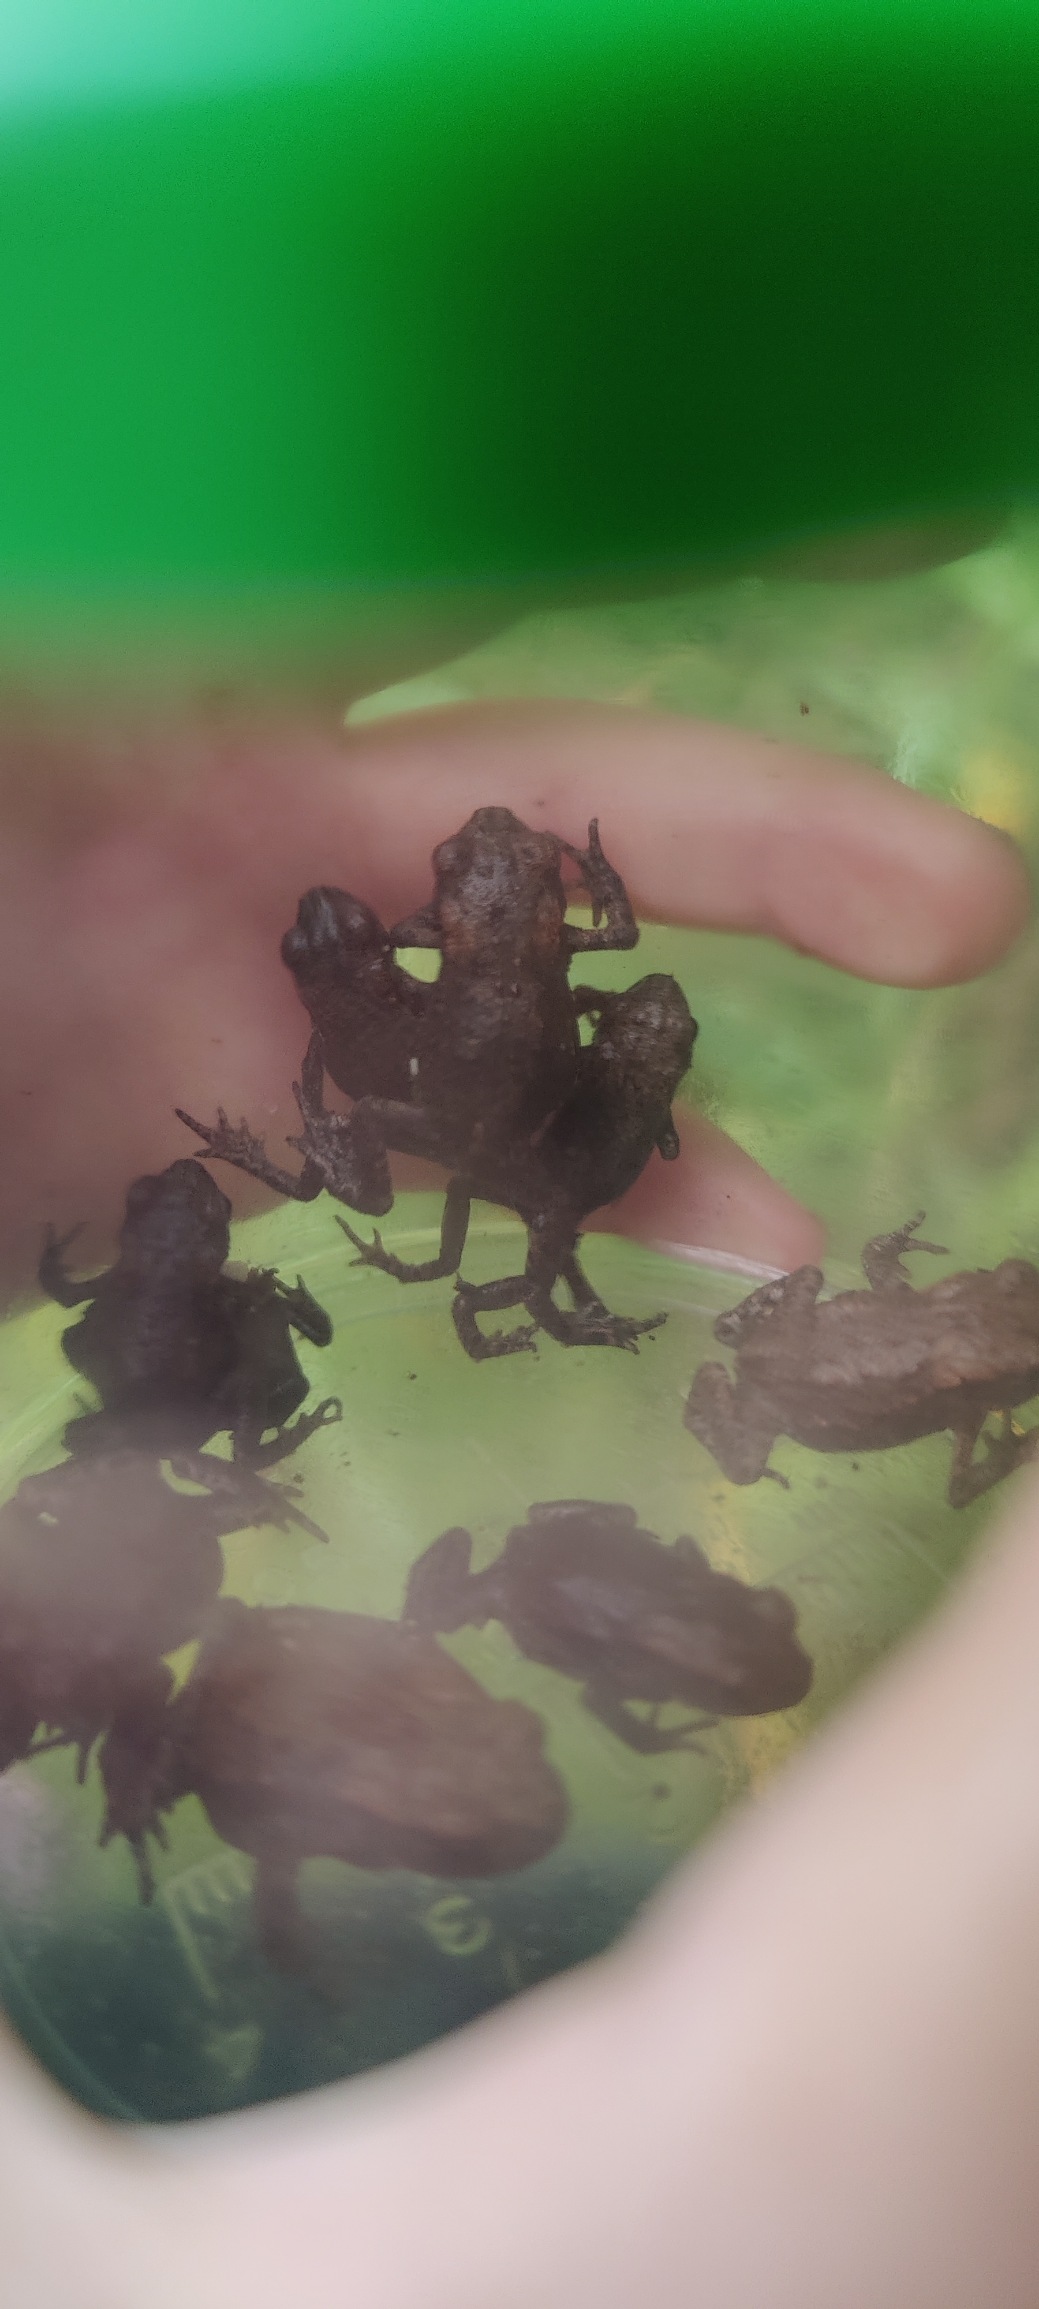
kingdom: Animalia
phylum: Chordata
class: Amphibia
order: Anura
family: Bufonidae
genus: Bufo
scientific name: Bufo bufo
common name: Skrubtudse
